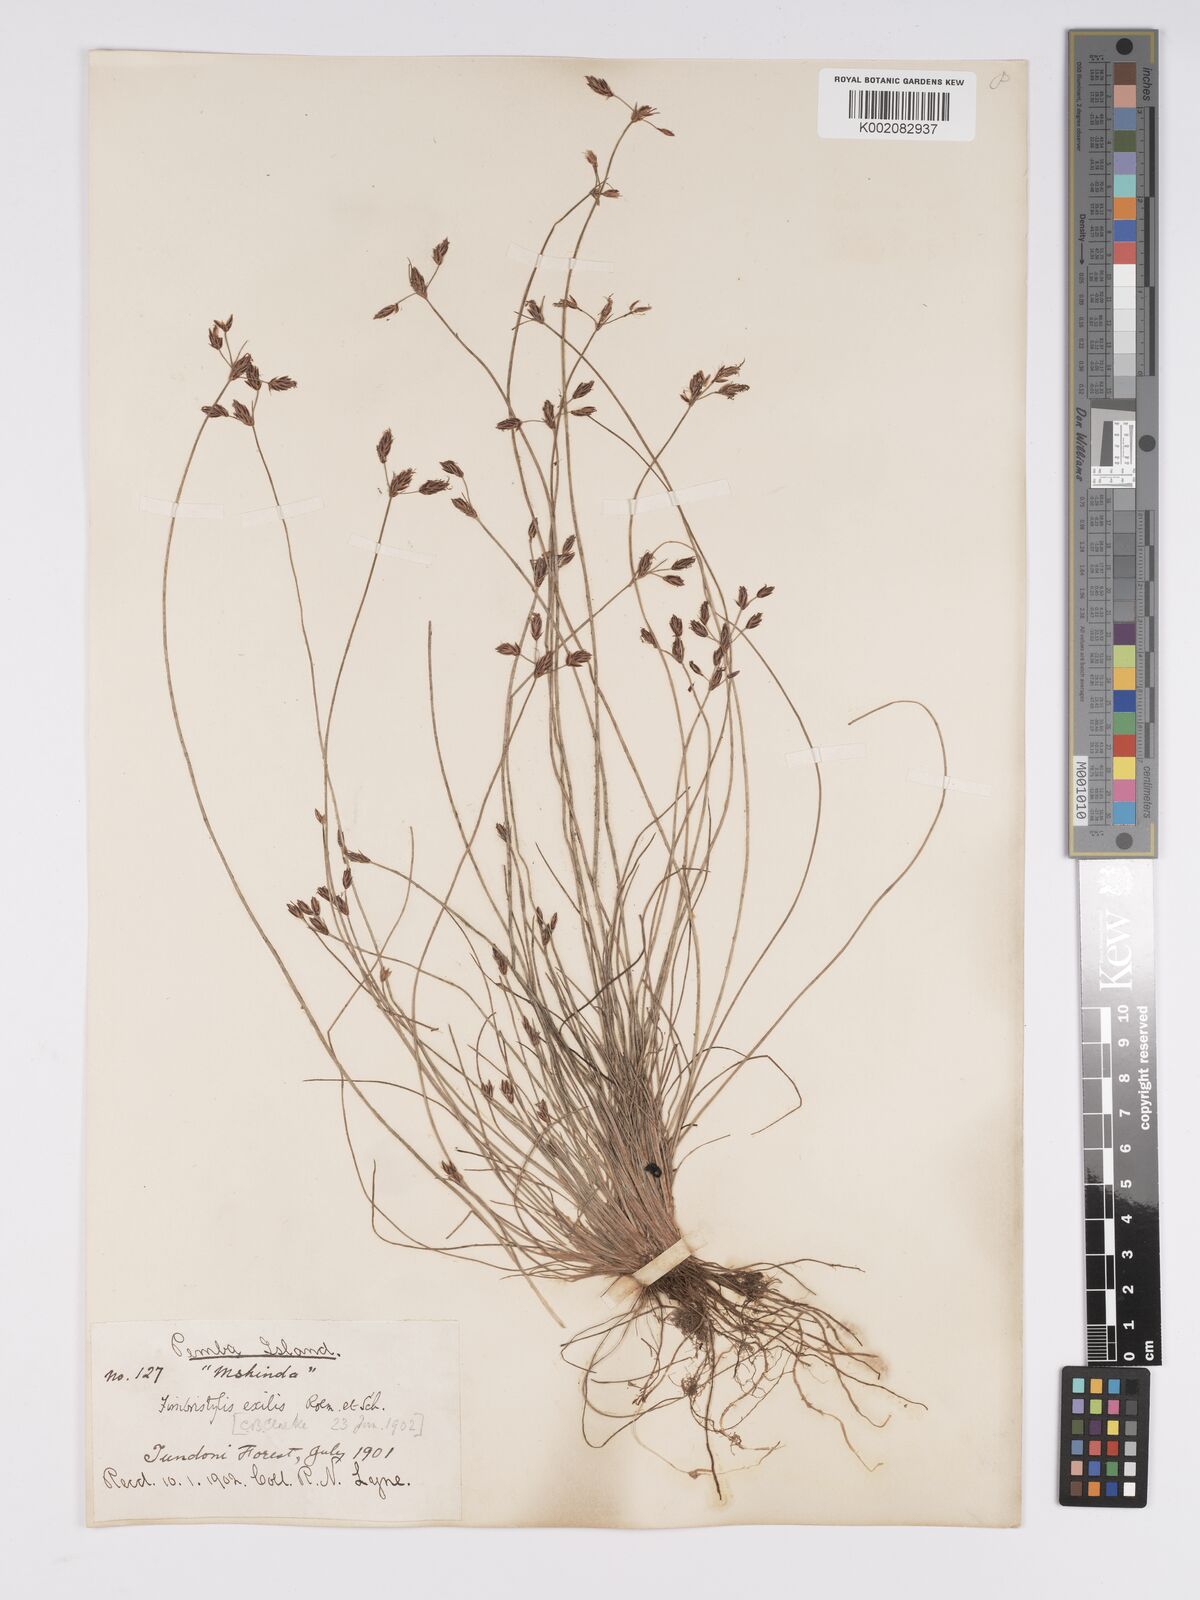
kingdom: Plantae
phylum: Tracheophyta
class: Liliopsida
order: Poales
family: Cyperaceae
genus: Bulbostylis
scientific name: Bulbostylis hispidula
